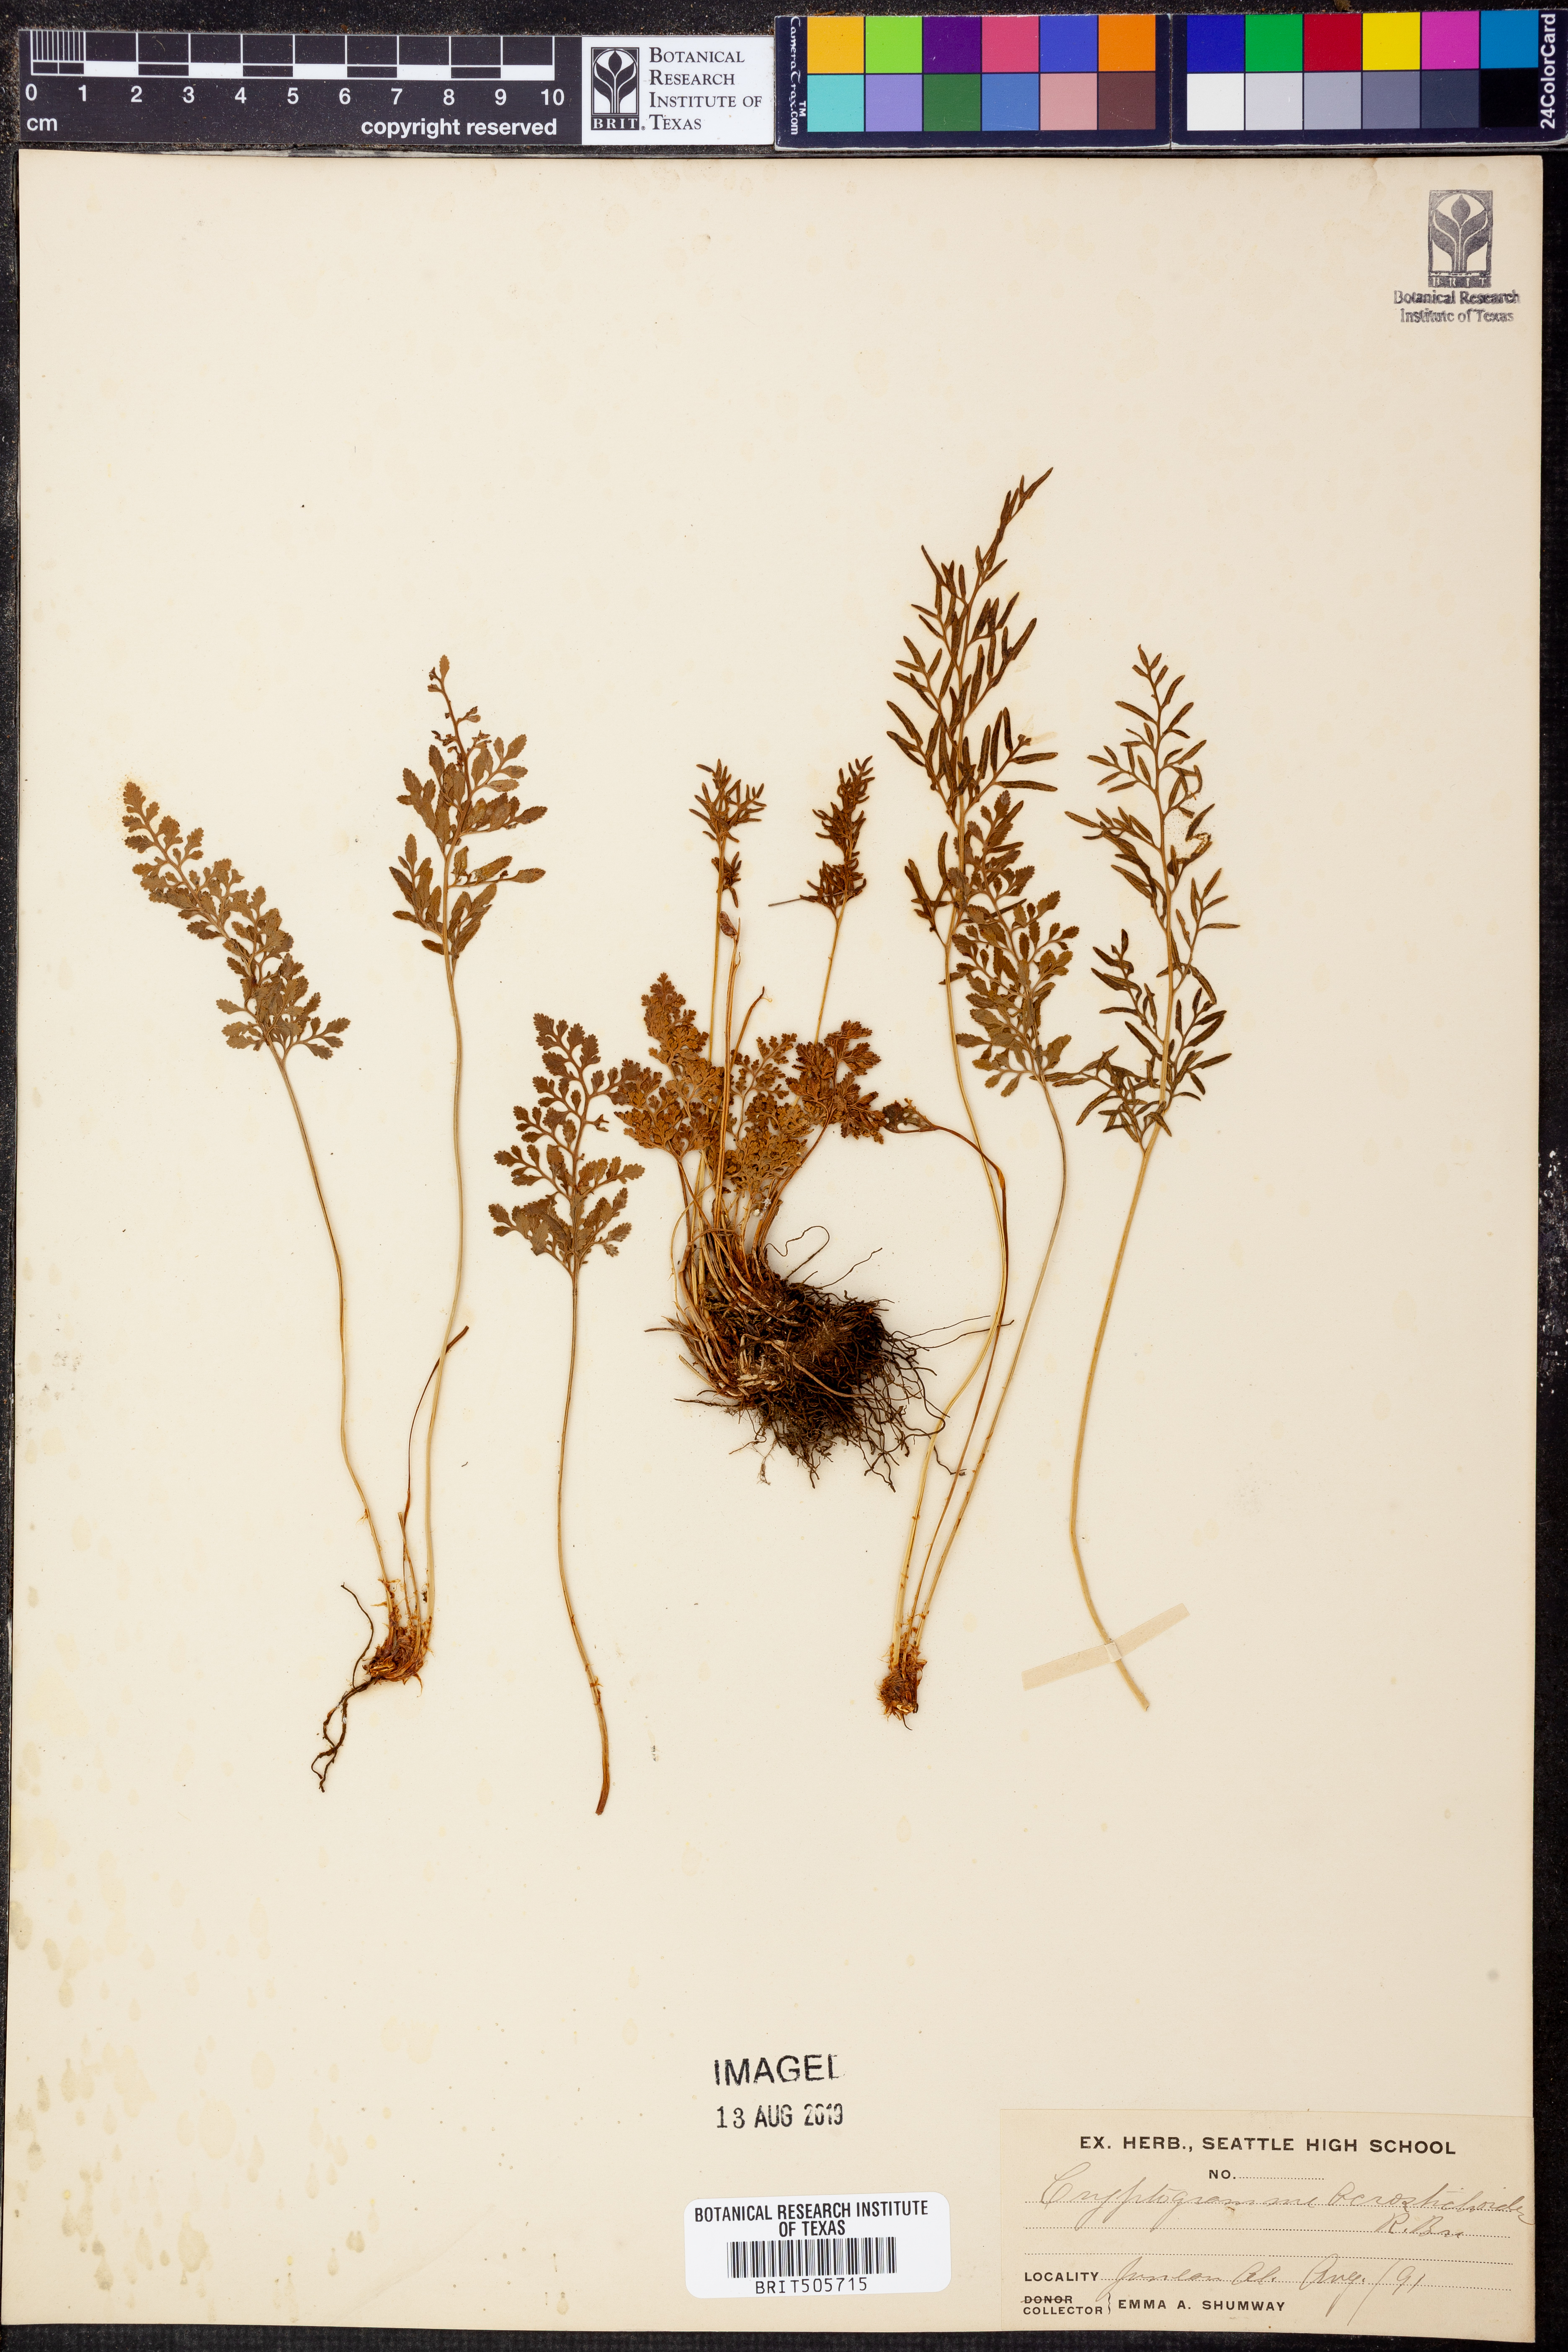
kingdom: Plantae
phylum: Tracheophyta
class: Polypodiopsida
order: Polypodiales
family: Pteridaceae
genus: Cryptogramma
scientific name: Cryptogramma acrostichoides
